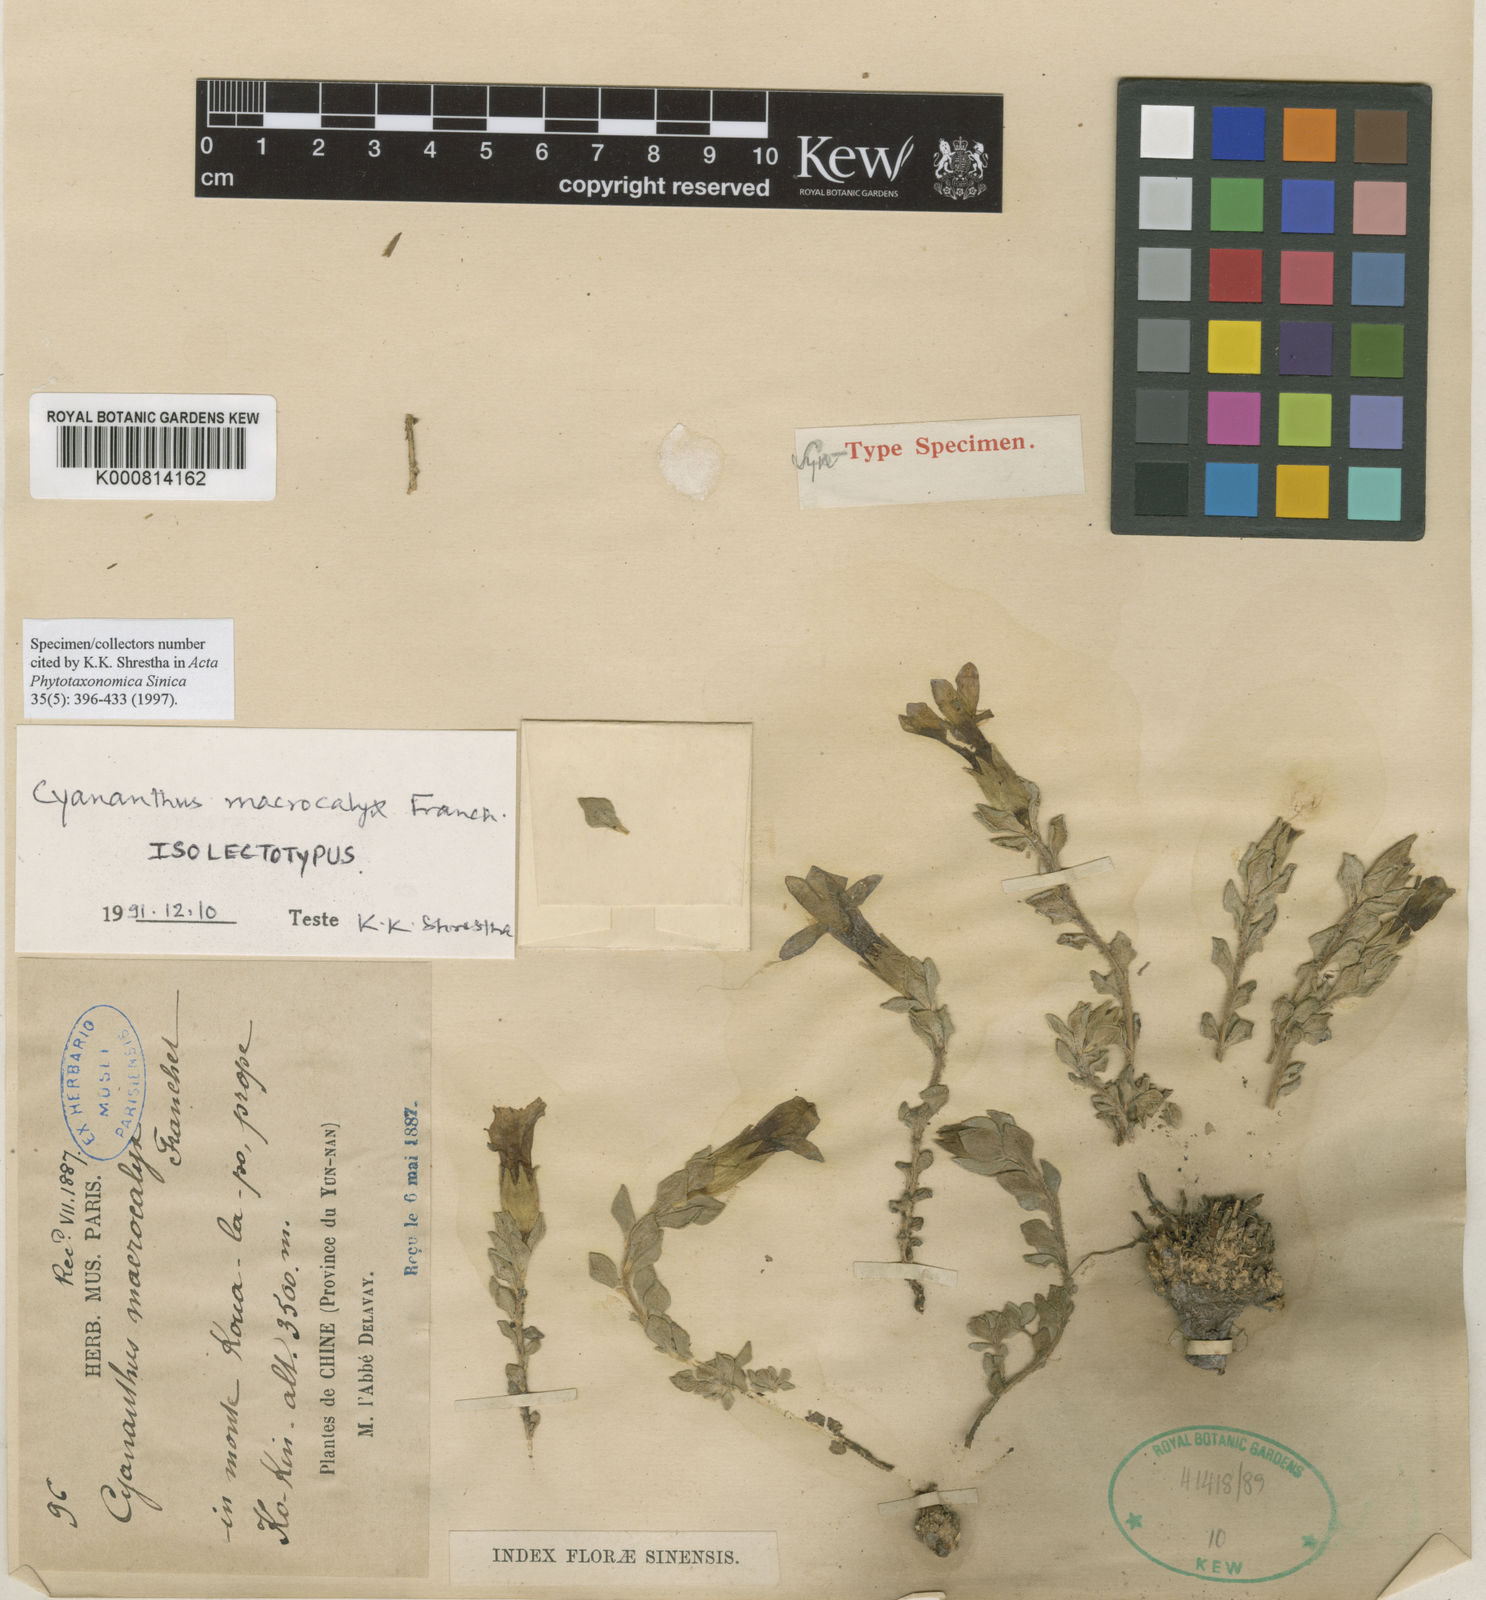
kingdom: Plantae
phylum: Tracheophyta
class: Magnoliopsida
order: Asterales
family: Campanulaceae
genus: Cyananthus
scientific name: Cyananthus macrocalyx
